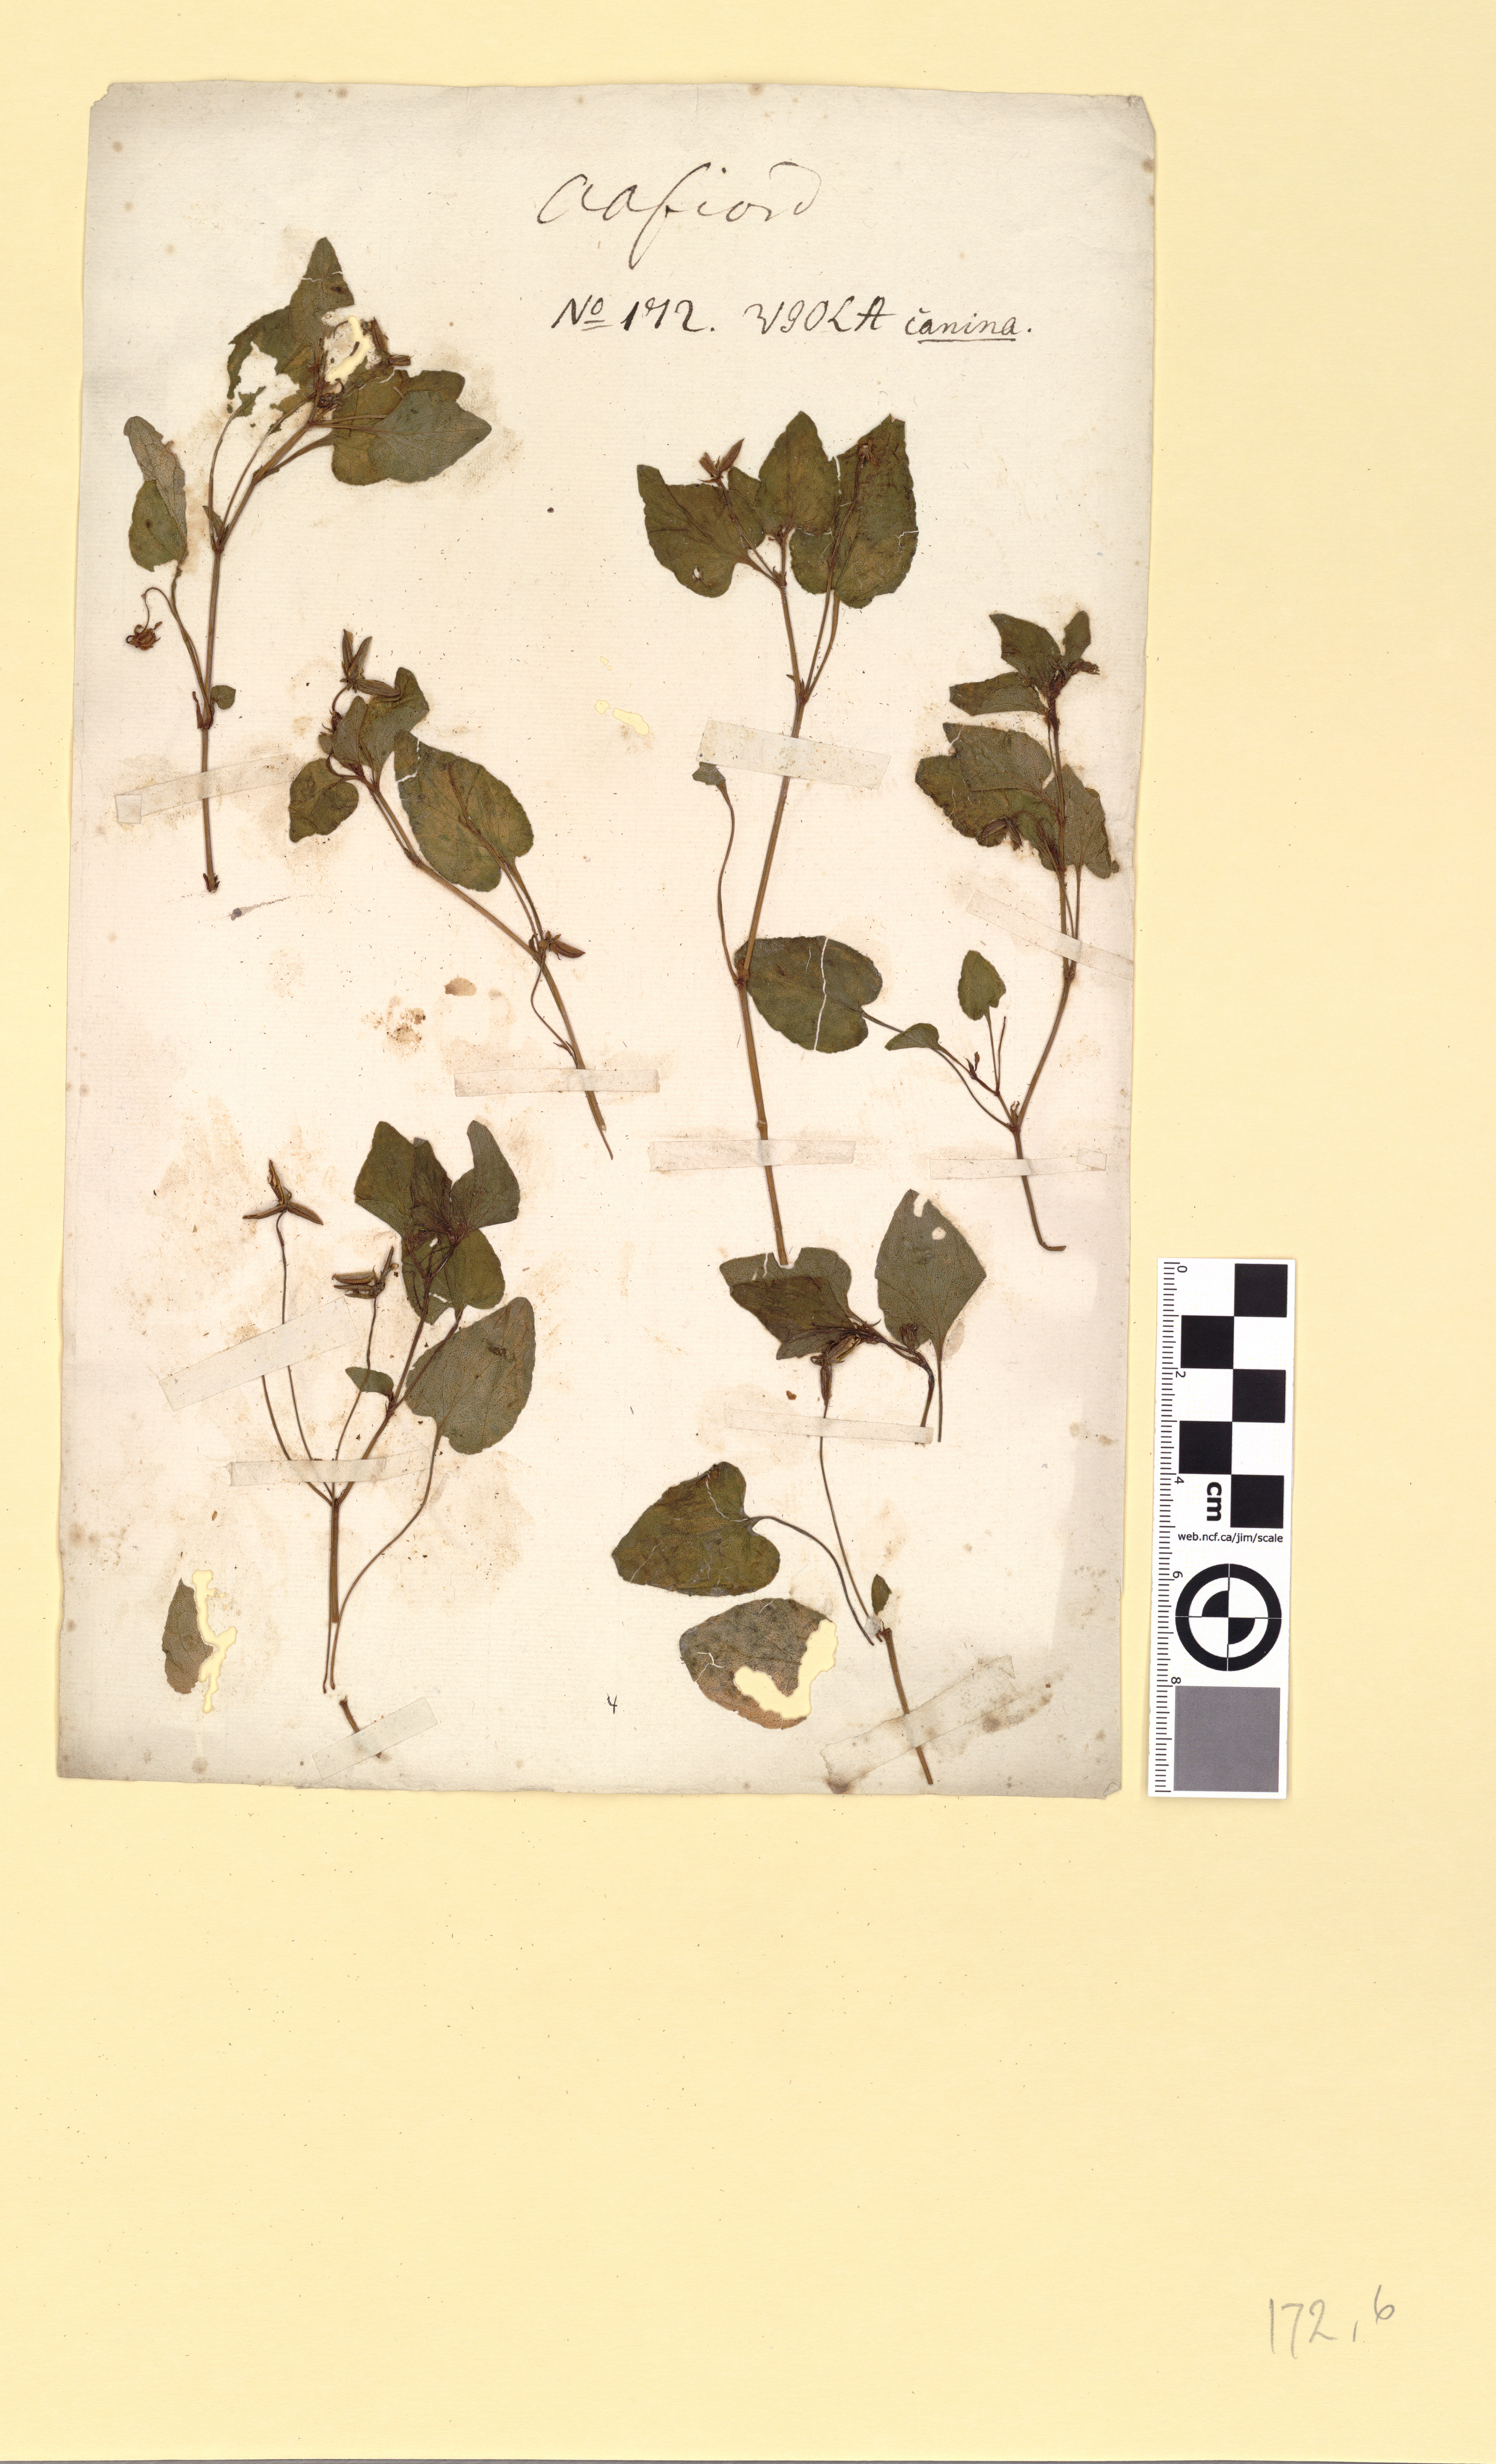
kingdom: Plantae
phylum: Tracheophyta
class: Magnoliopsida
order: Malpighiales
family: Violaceae
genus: Viola
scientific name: Viola canina
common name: Heath dog-violet
